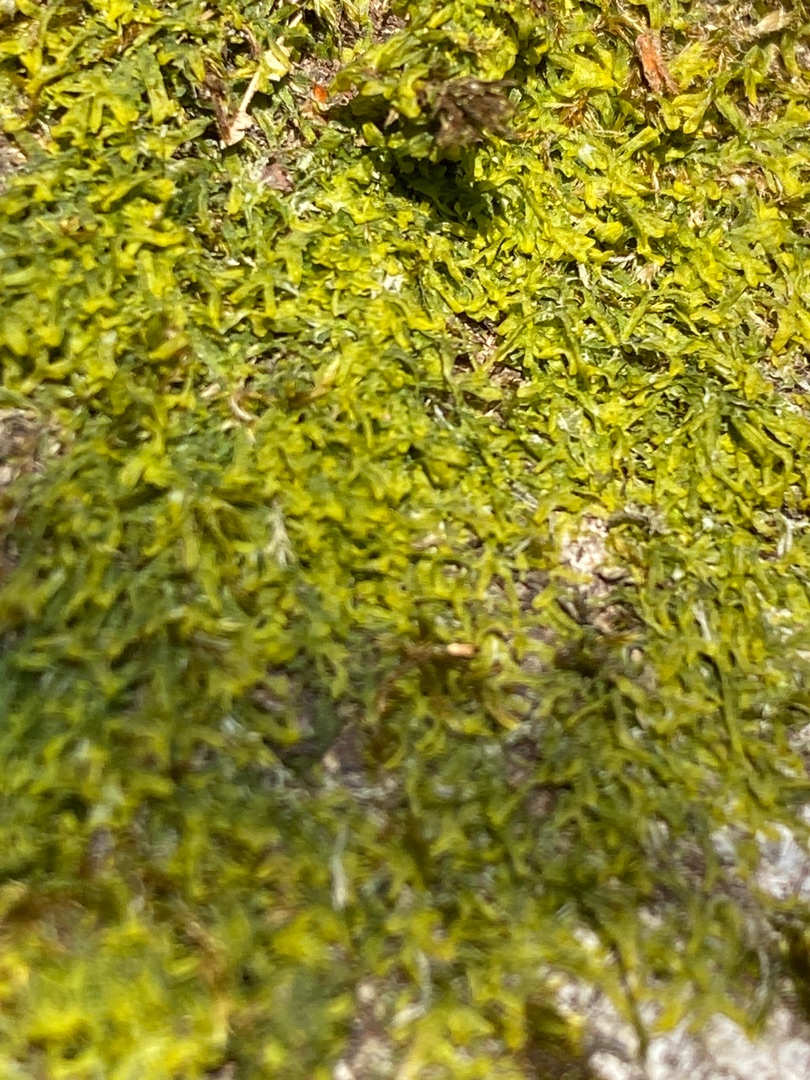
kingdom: Plantae
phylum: Marchantiophyta
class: Jungermanniopsida
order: Metzgeriales
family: Metzgeriaceae
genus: Metzgeria
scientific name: Metzgeria furcata
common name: Almindelig gaffelløv
